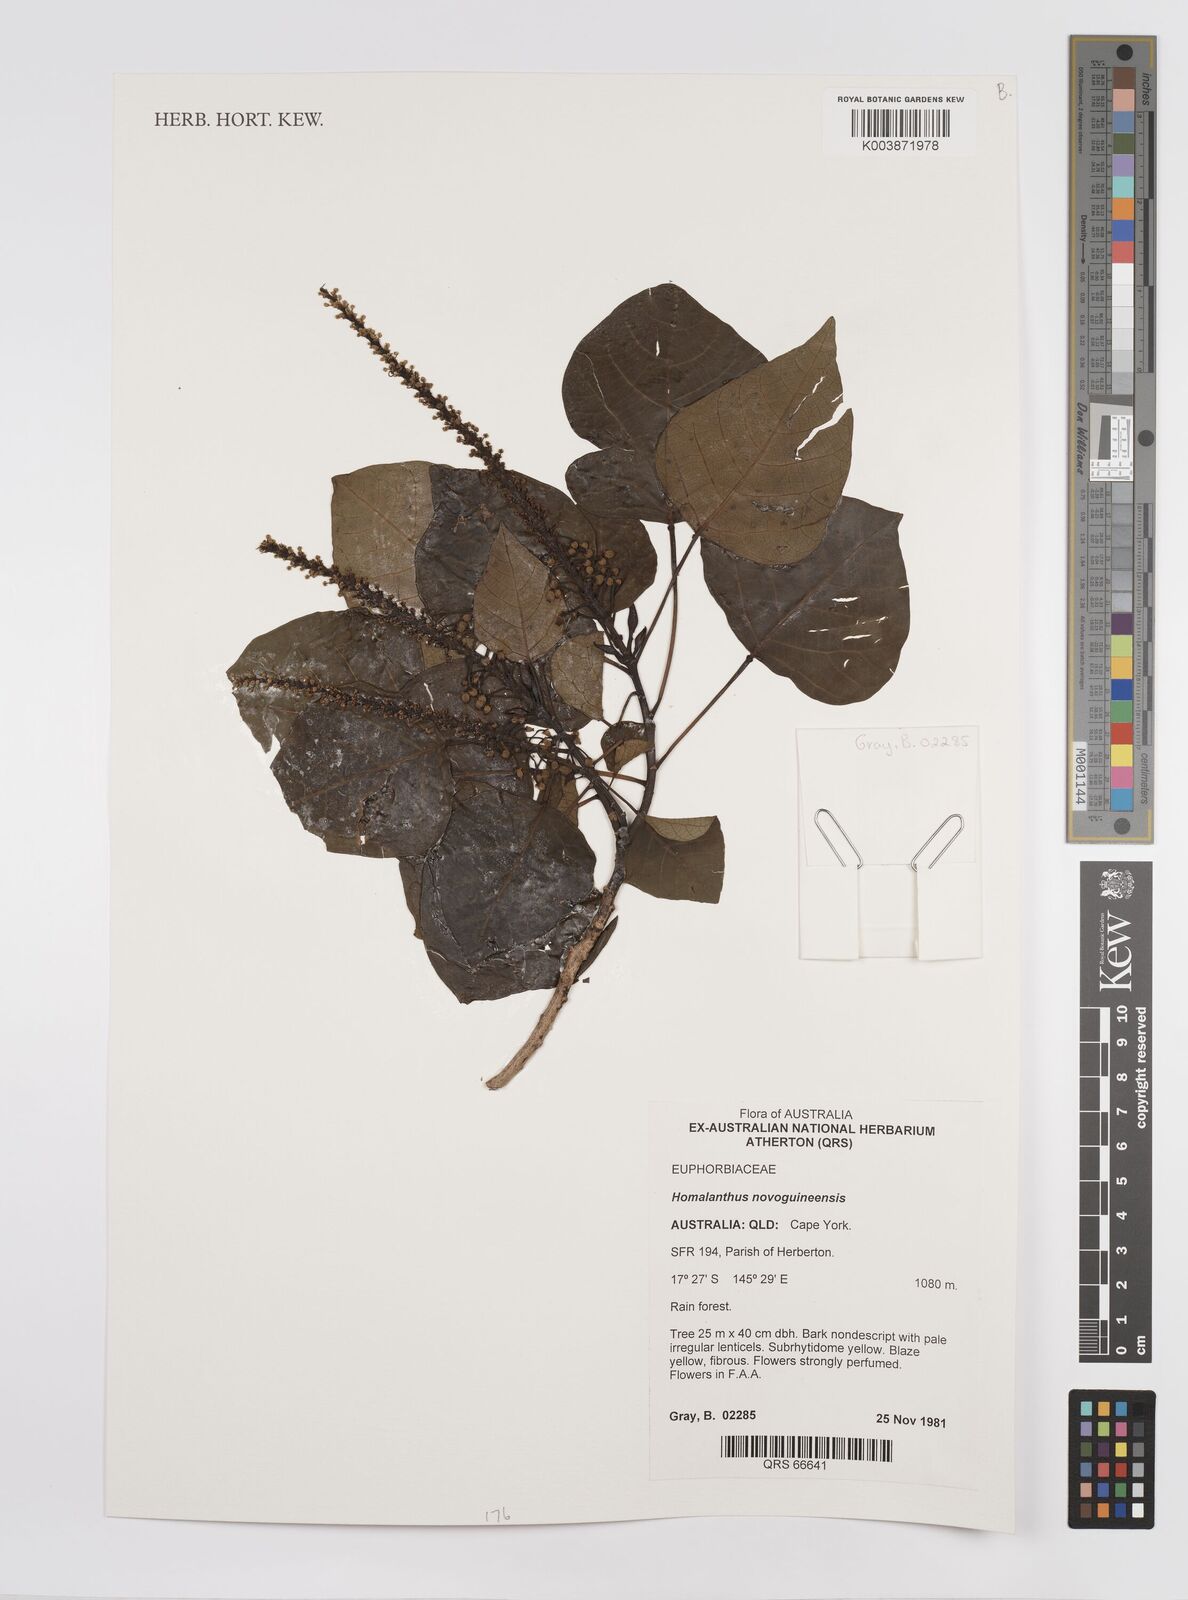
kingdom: Plantae
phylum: Tracheophyta
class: Magnoliopsida
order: Malpighiales
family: Euphorbiaceae
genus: Homalanthus
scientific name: Homalanthus novoguineensis
